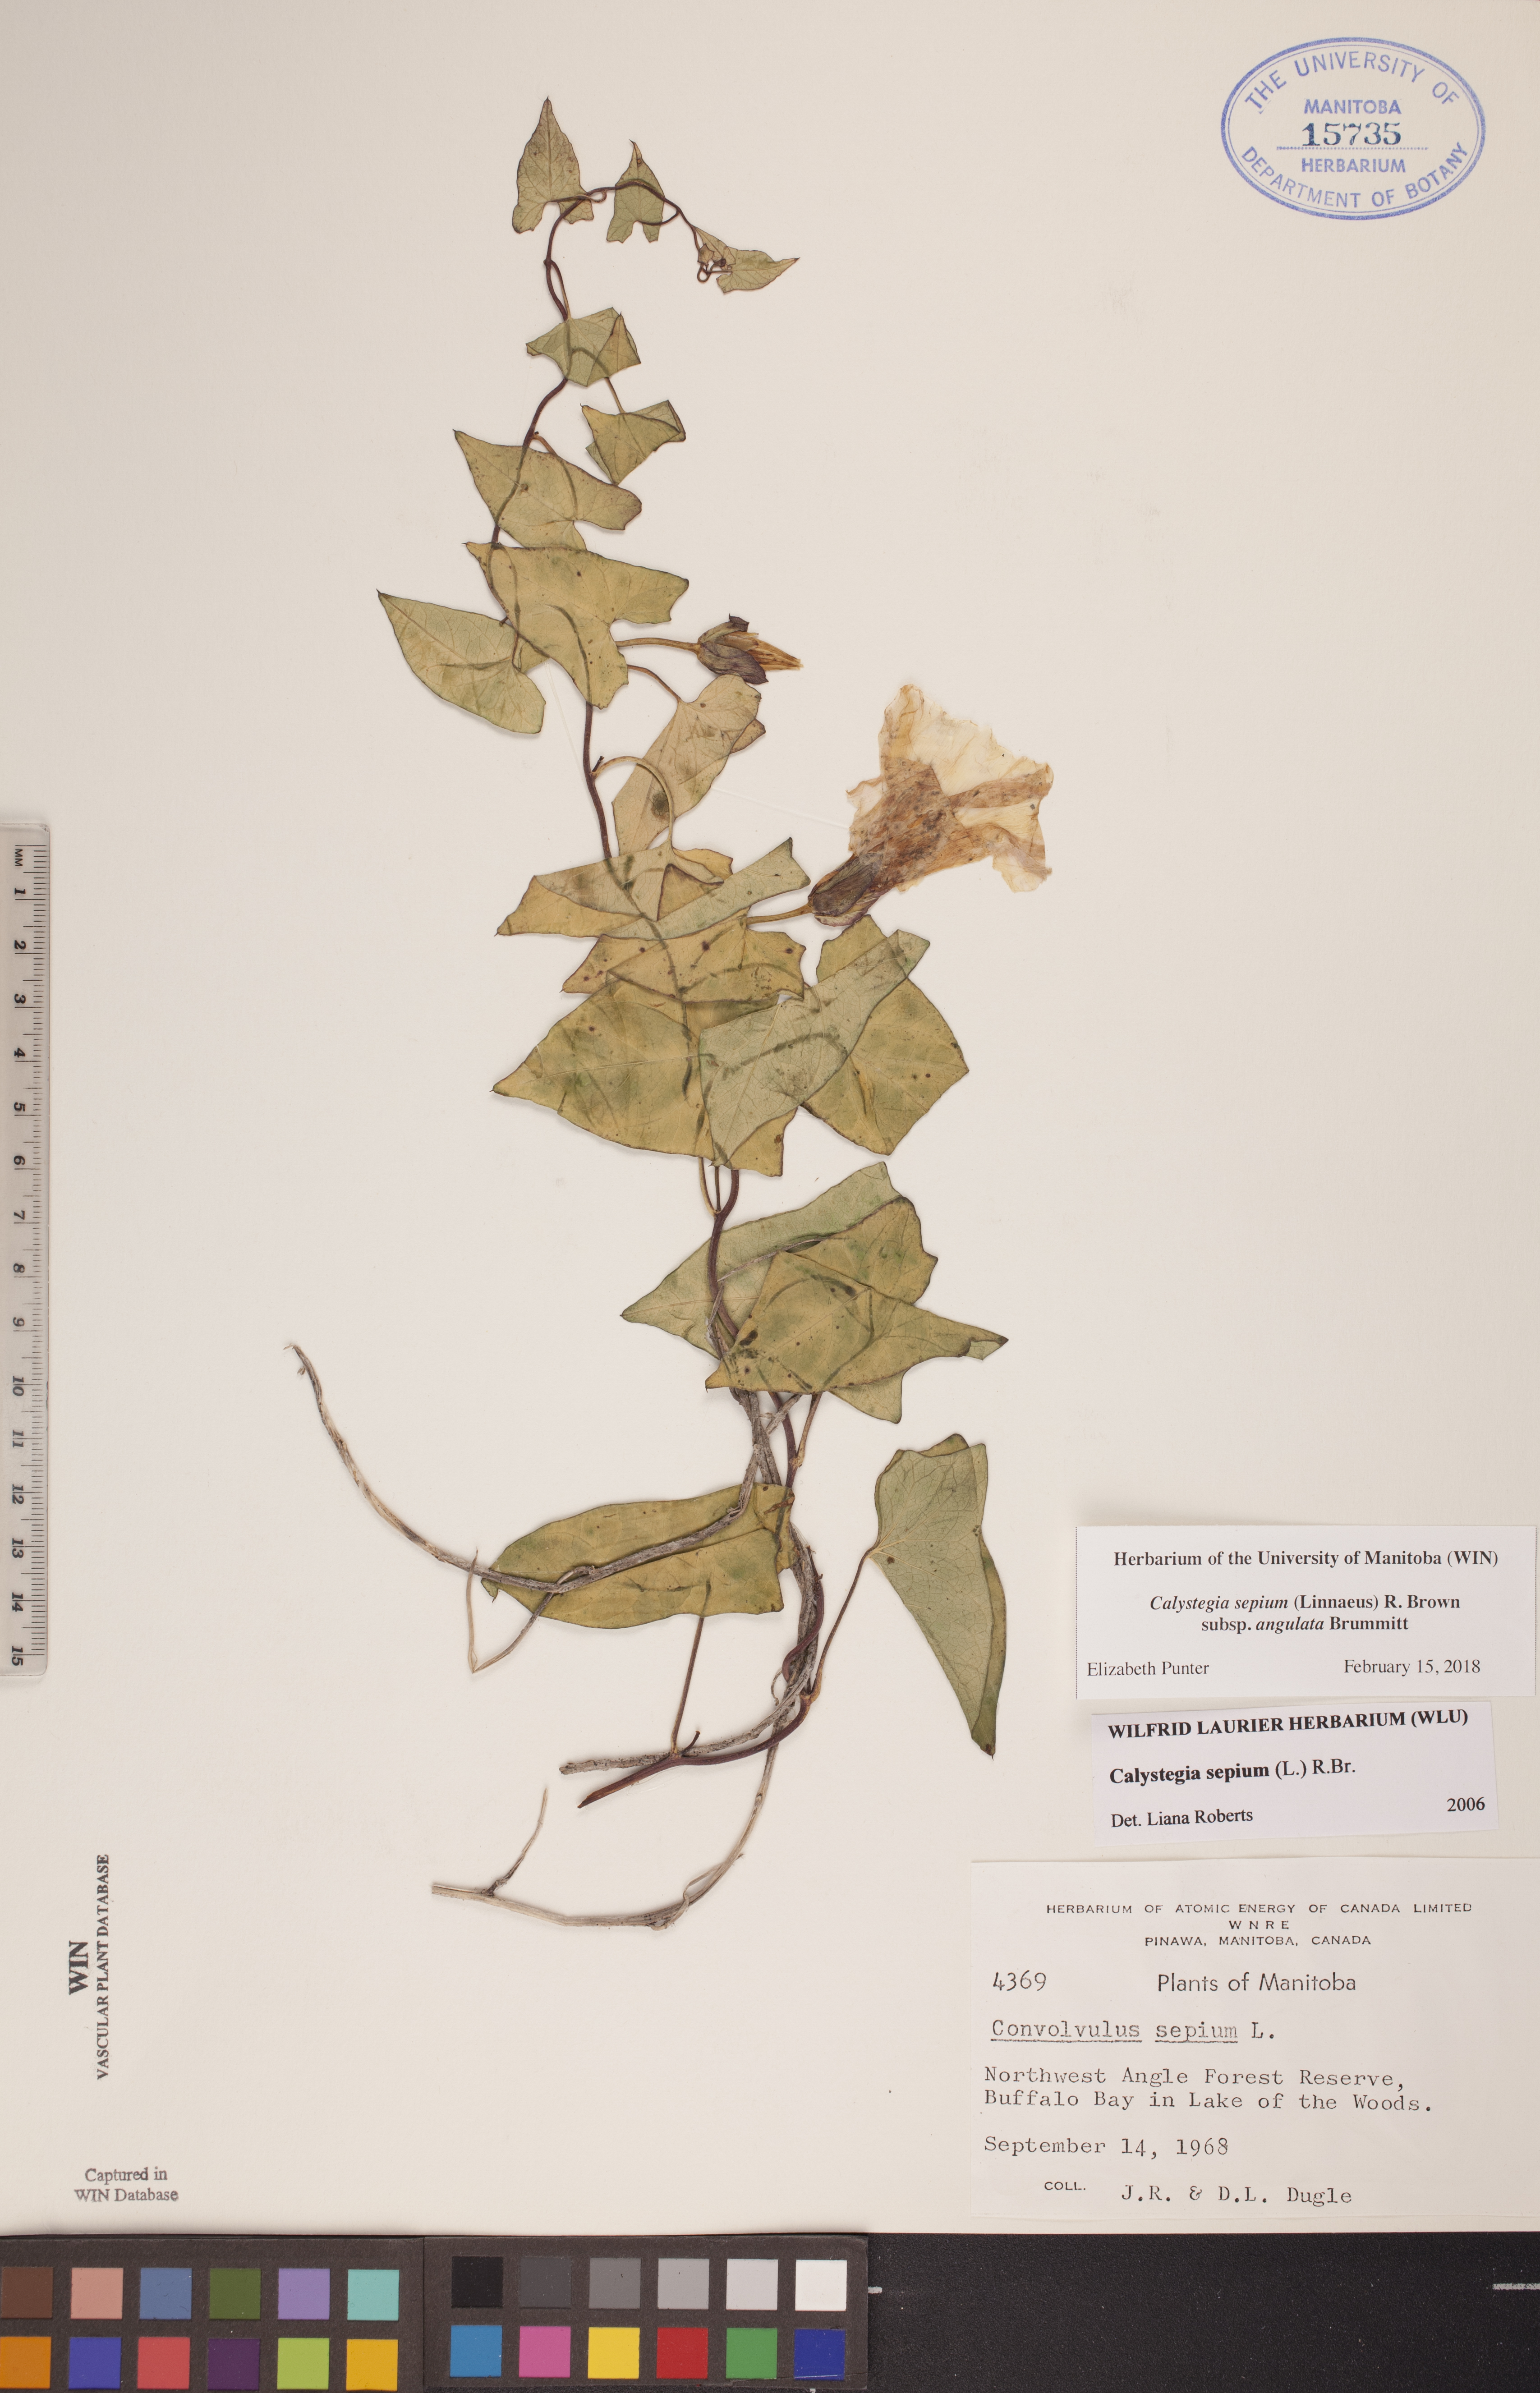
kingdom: Plantae
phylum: Tracheophyta
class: Magnoliopsida
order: Solanales
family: Convolvulaceae
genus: Calystegia
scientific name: Calystegia sepium
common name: Hedge bindweed
